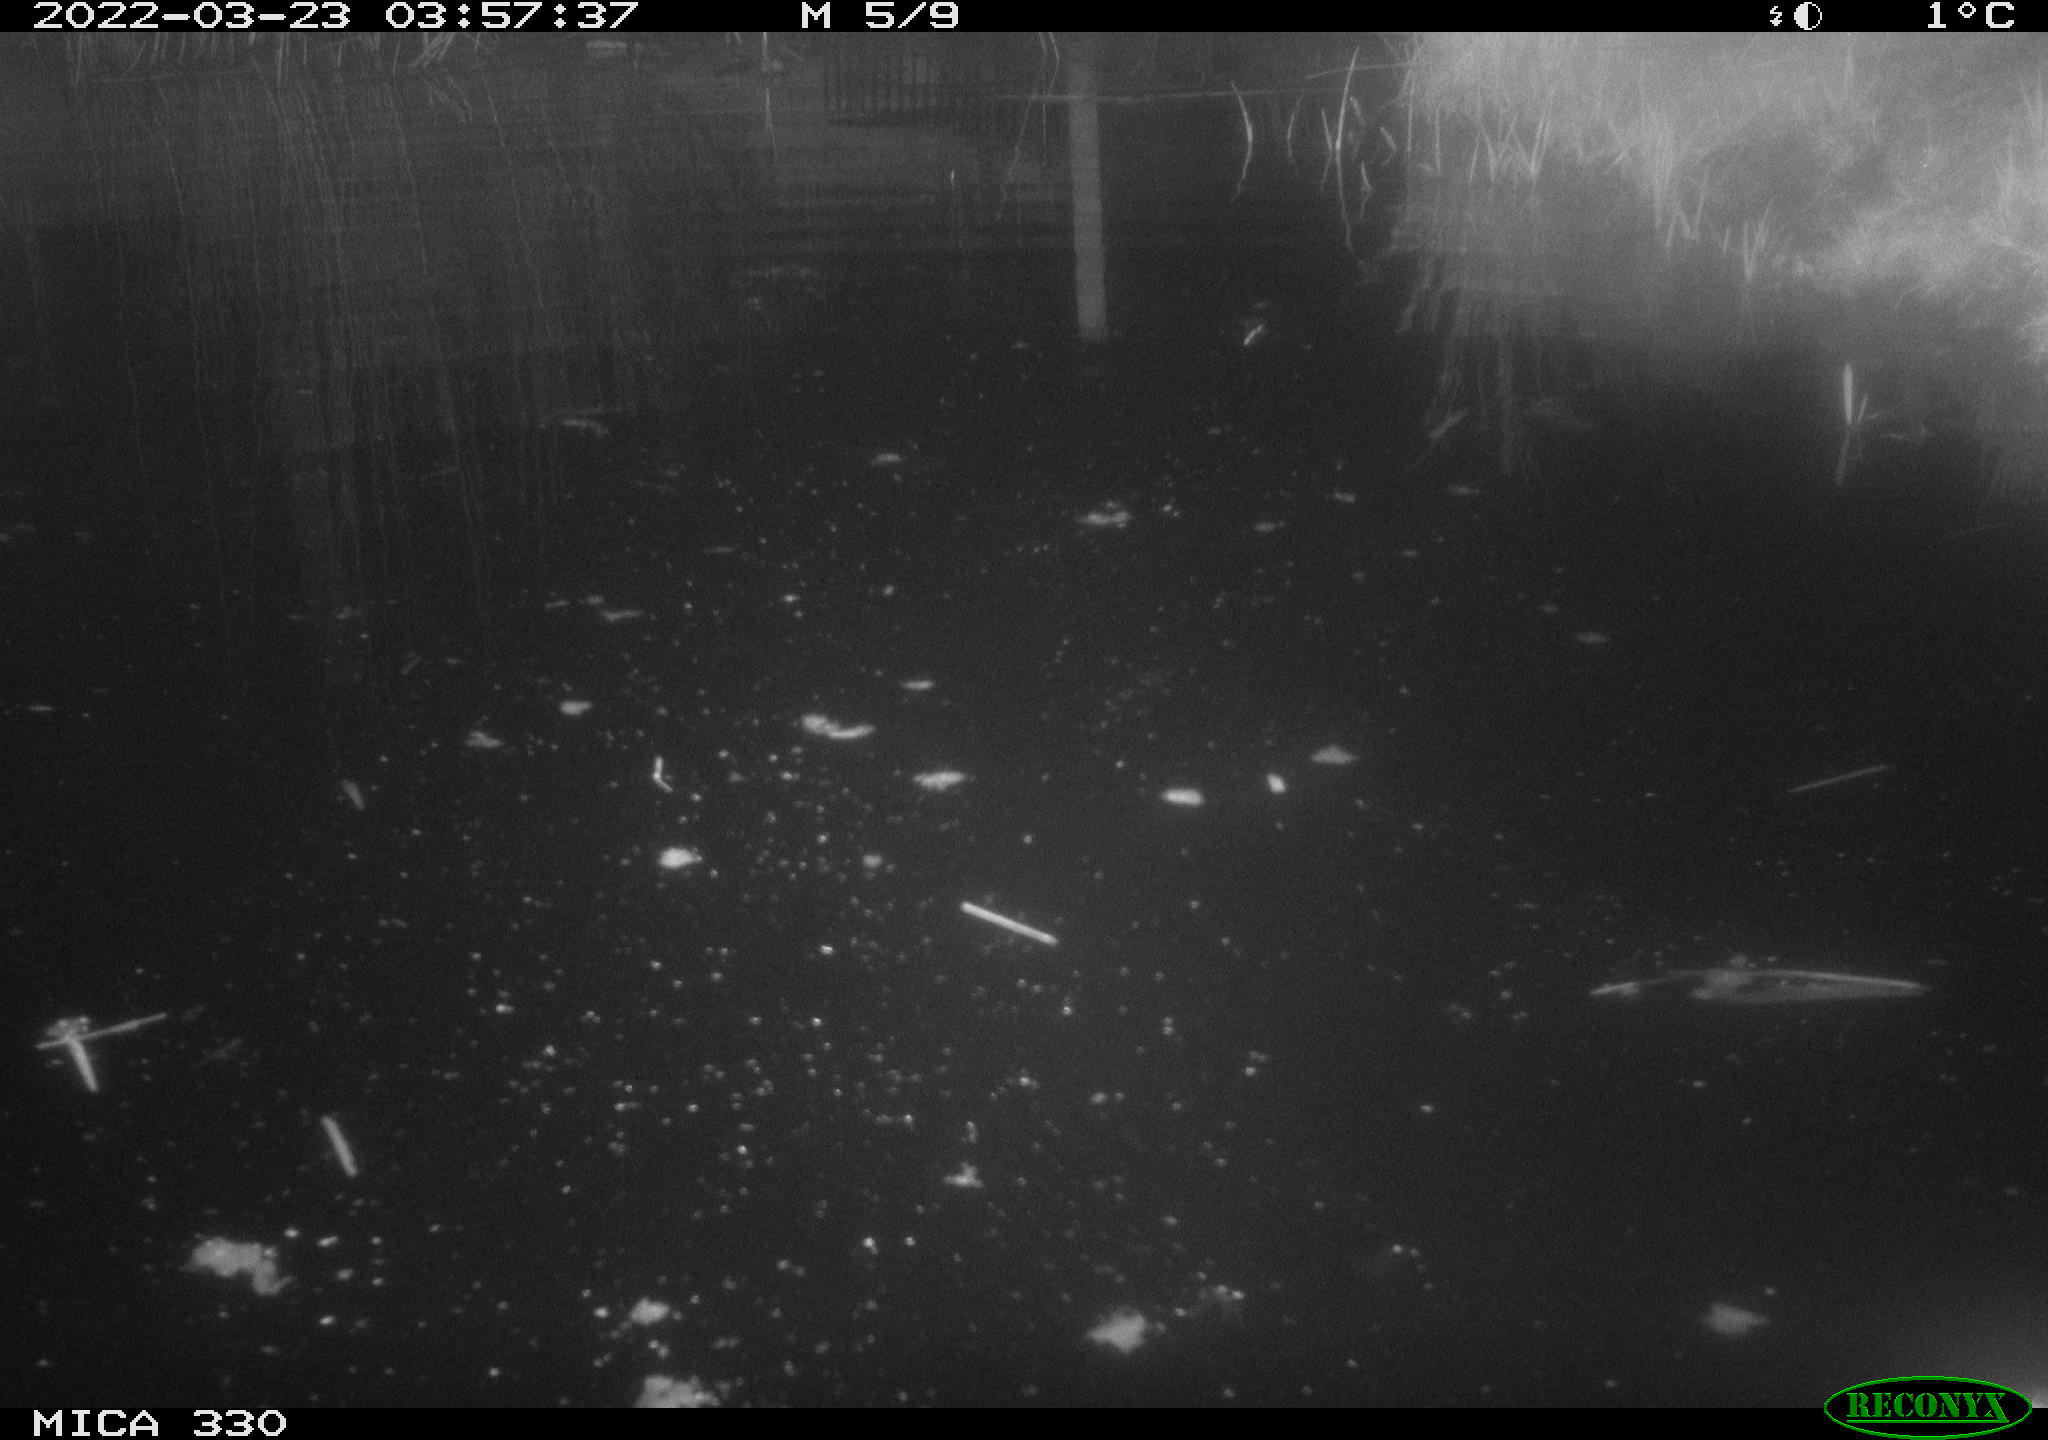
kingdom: Animalia
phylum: Chordata
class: Aves
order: Anseriformes
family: Anatidae
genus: Anas
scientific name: Anas platyrhynchos
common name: Mallard
